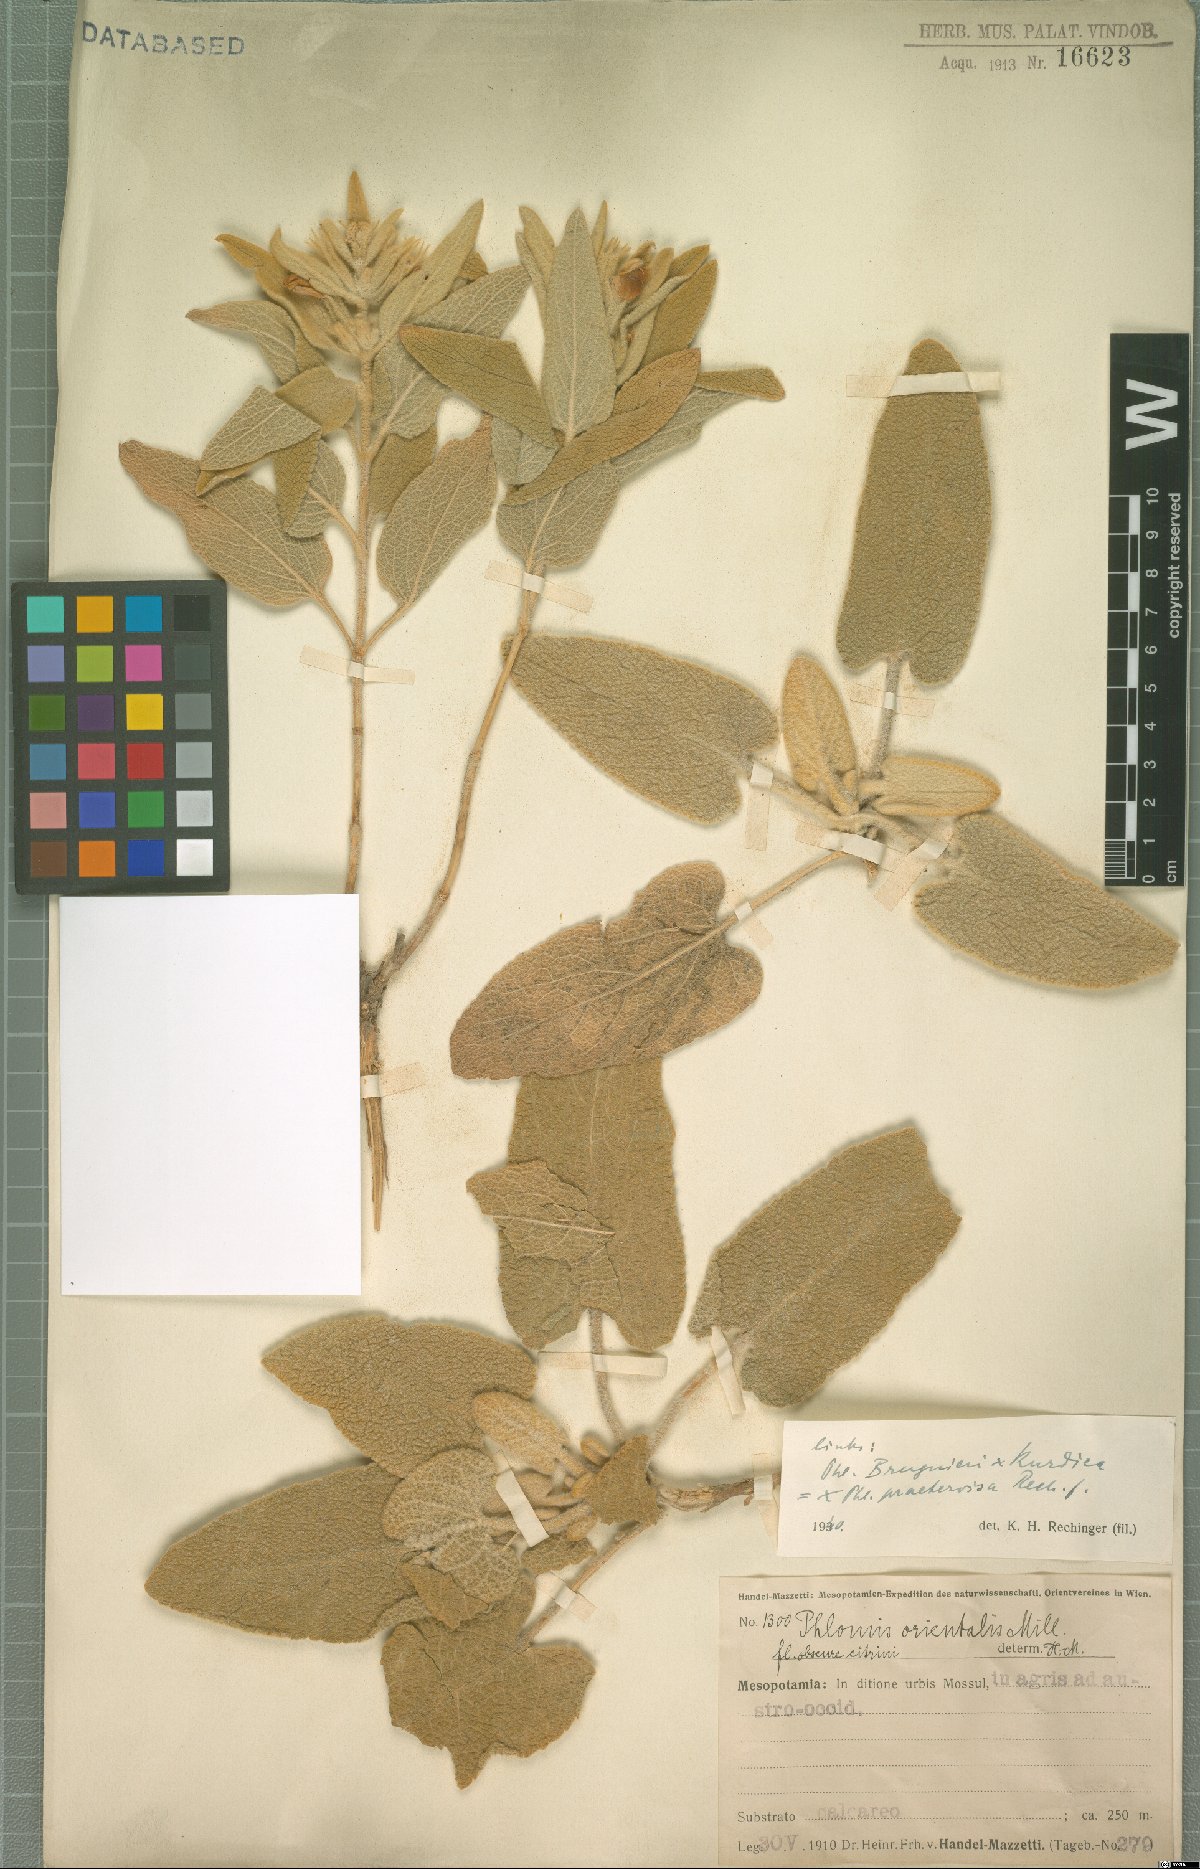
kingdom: Plantae
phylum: Tracheophyta
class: Magnoliopsida
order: Lamiales
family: Lamiaceae
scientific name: Lamiaceae
